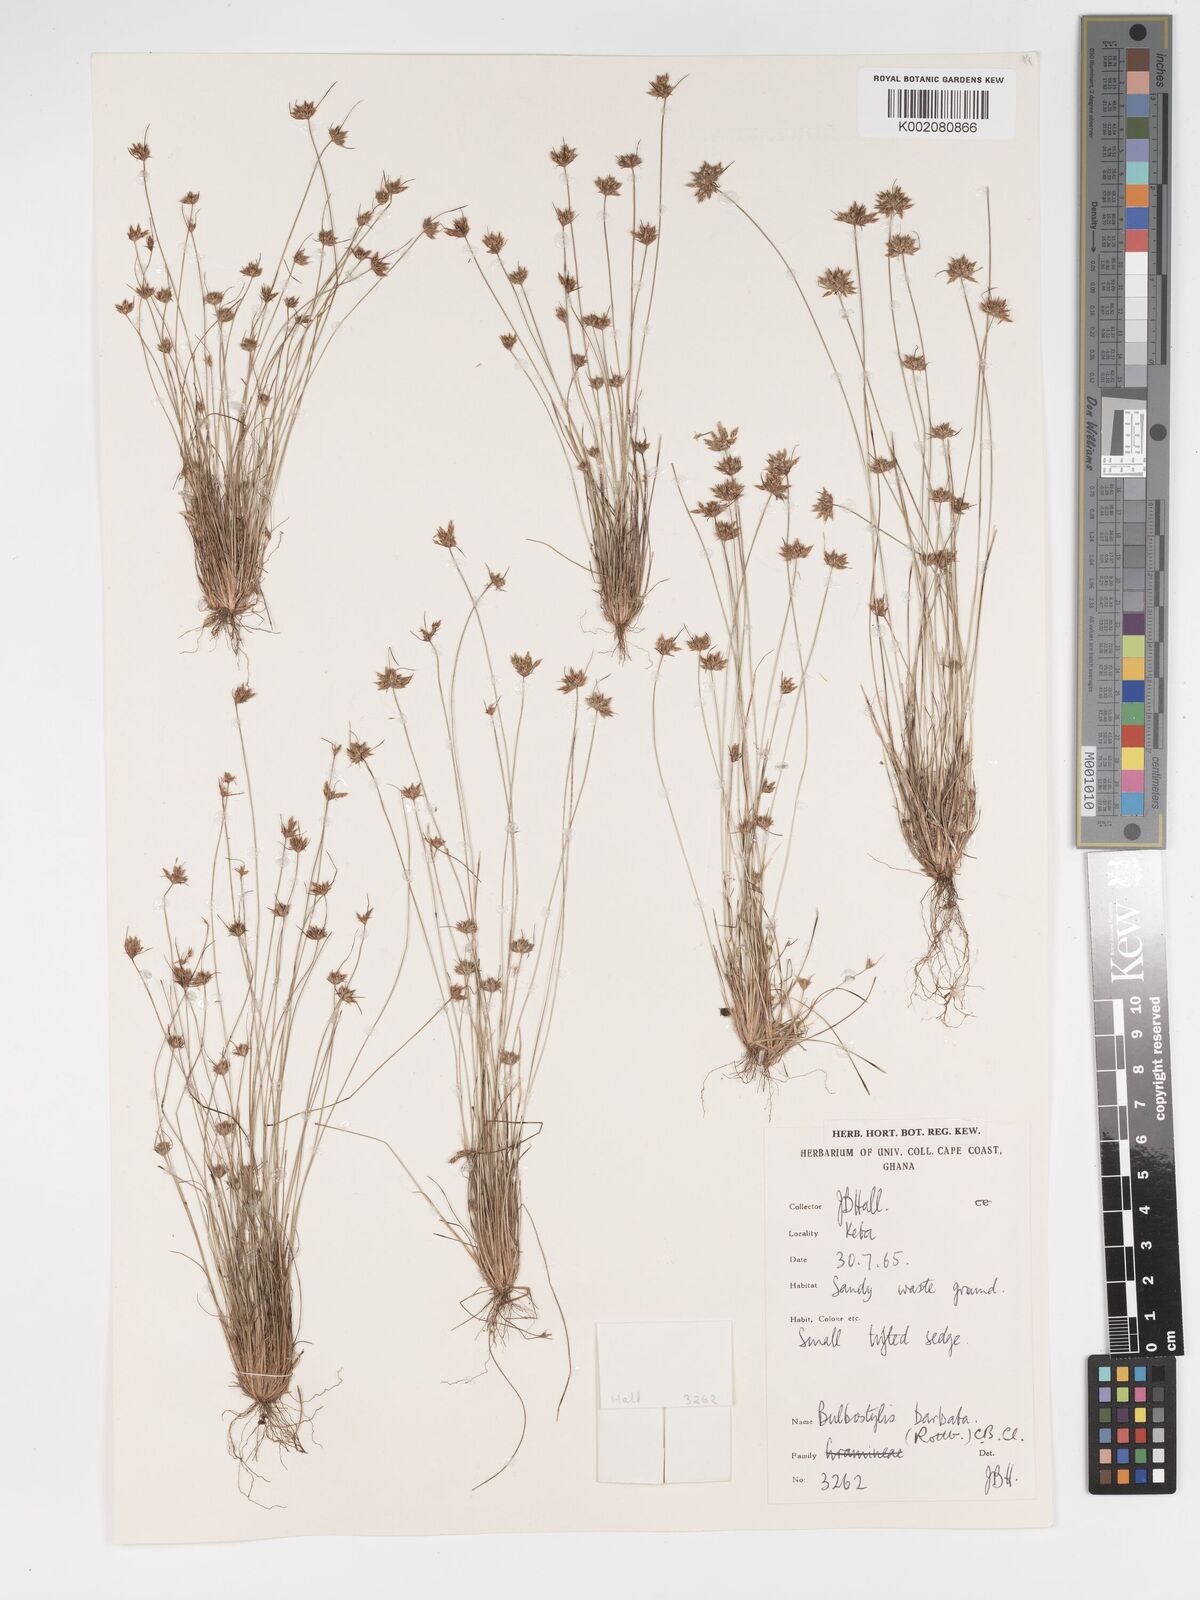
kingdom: Plantae
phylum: Tracheophyta
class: Liliopsida
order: Poales
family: Cyperaceae
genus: Bulbostylis
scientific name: Bulbostylis barbata
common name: Watergrass
